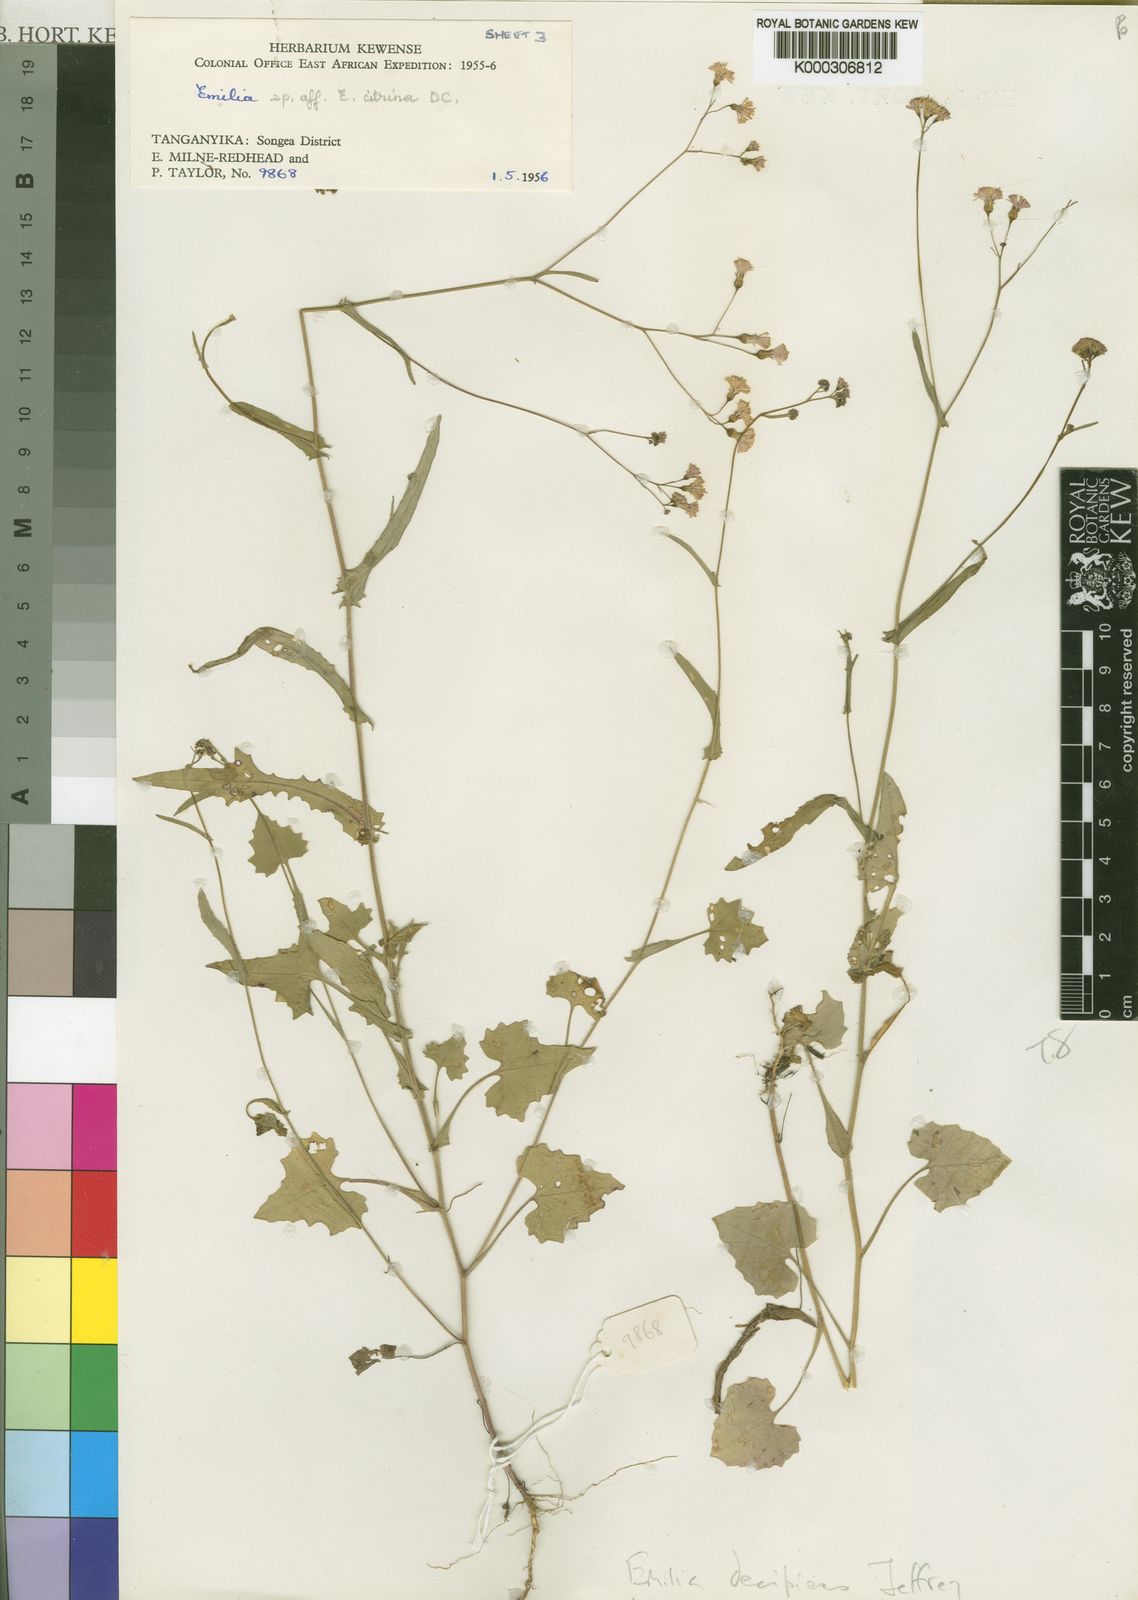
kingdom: Plantae
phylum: Tracheophyta
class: Magnoliopsida
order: Asterales
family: Asteraceae
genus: Emilia
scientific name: Emilia decipiens
